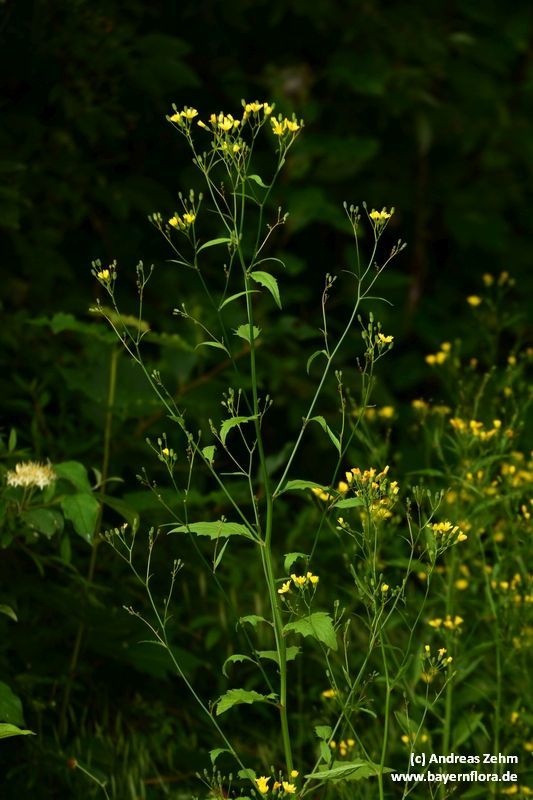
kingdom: Plantae
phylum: Tracheophyta
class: Magnoliopsida
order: Asterales
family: Asteraceae
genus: Lapsana
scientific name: Lapsana communis
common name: Nipplewort
